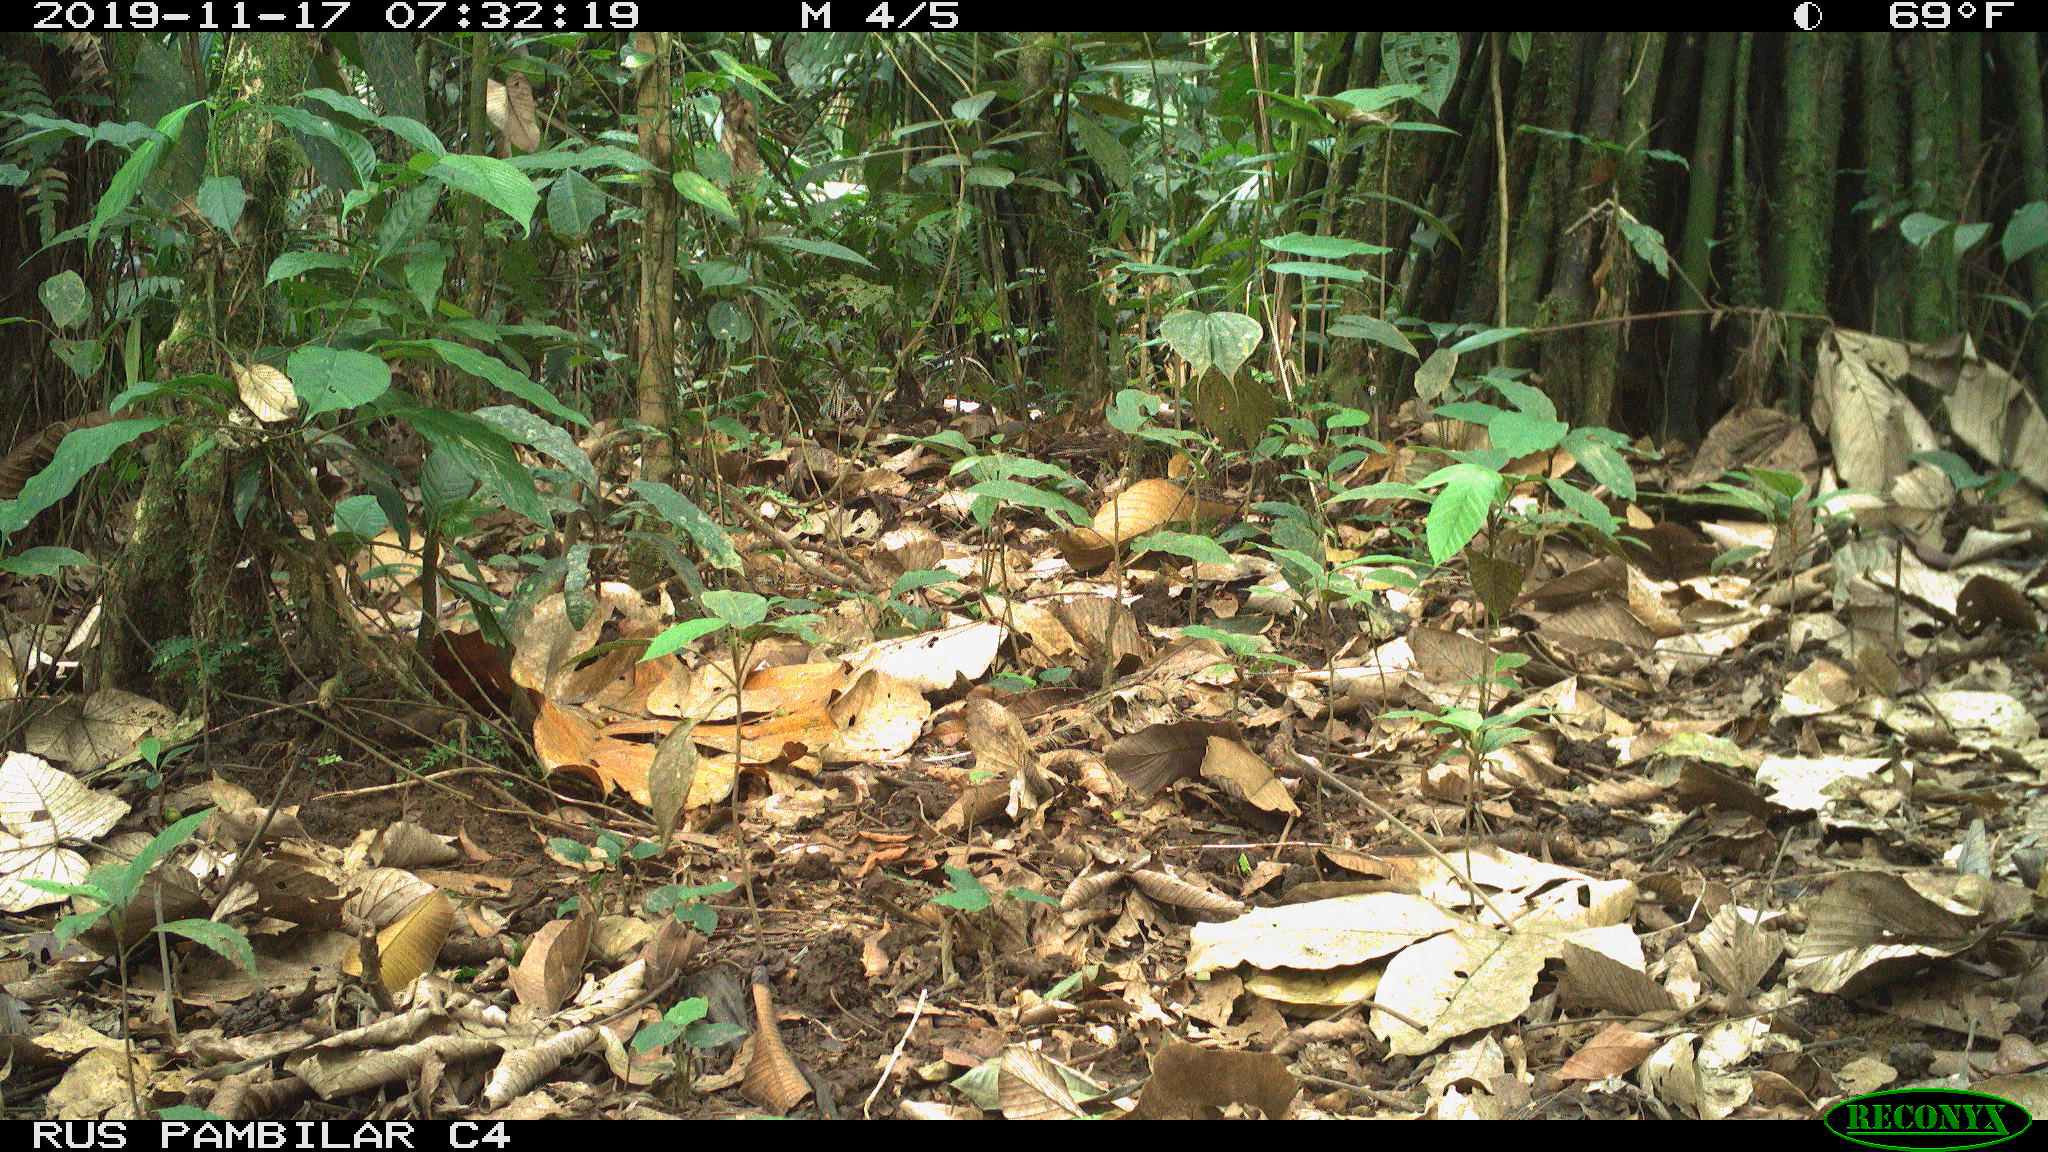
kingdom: Animalia
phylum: Chordata
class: Mammalia
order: Rodentia
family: Dasyproctidae
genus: Dasyprocta
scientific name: Dasyprocta punctata
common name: Central american agouti
